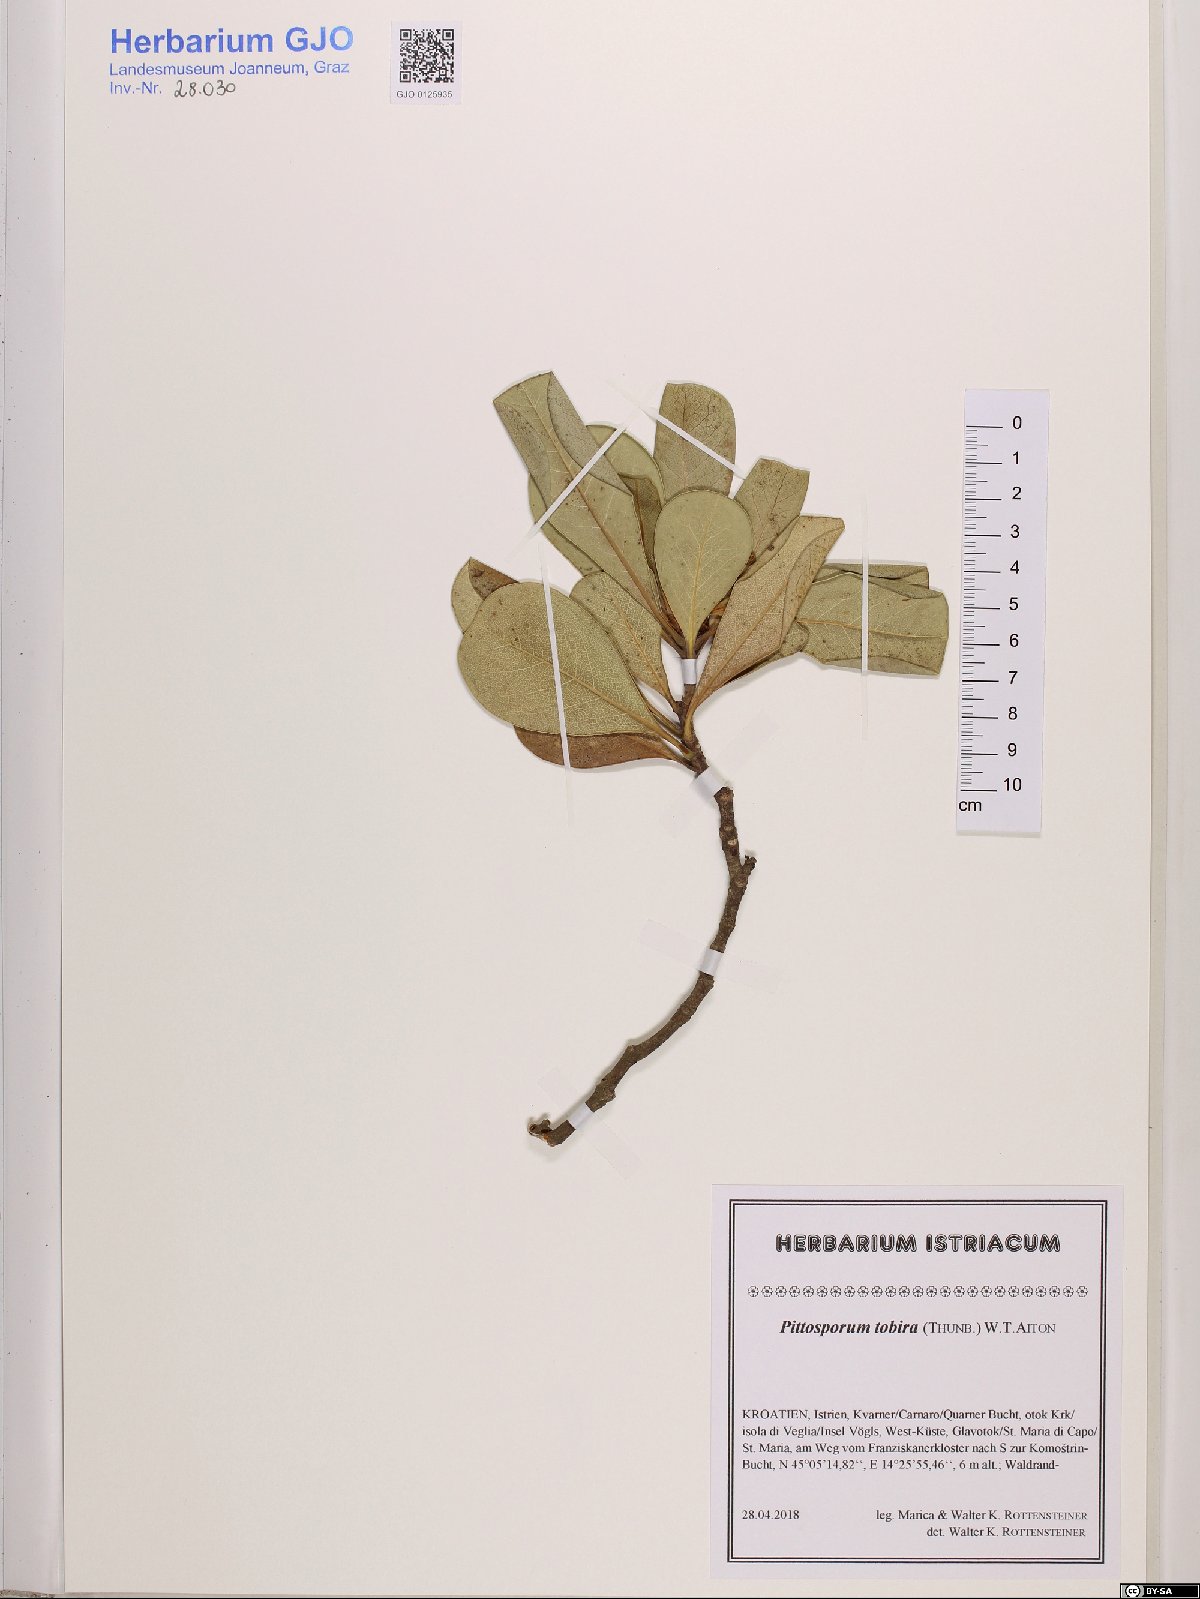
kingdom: Plantae
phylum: Tracheophyta
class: Magnoliopsida
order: Apiales
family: Pittosporaceae
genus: Pittosporum
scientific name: Pittosporum tobira
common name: Japanese cheesewood
